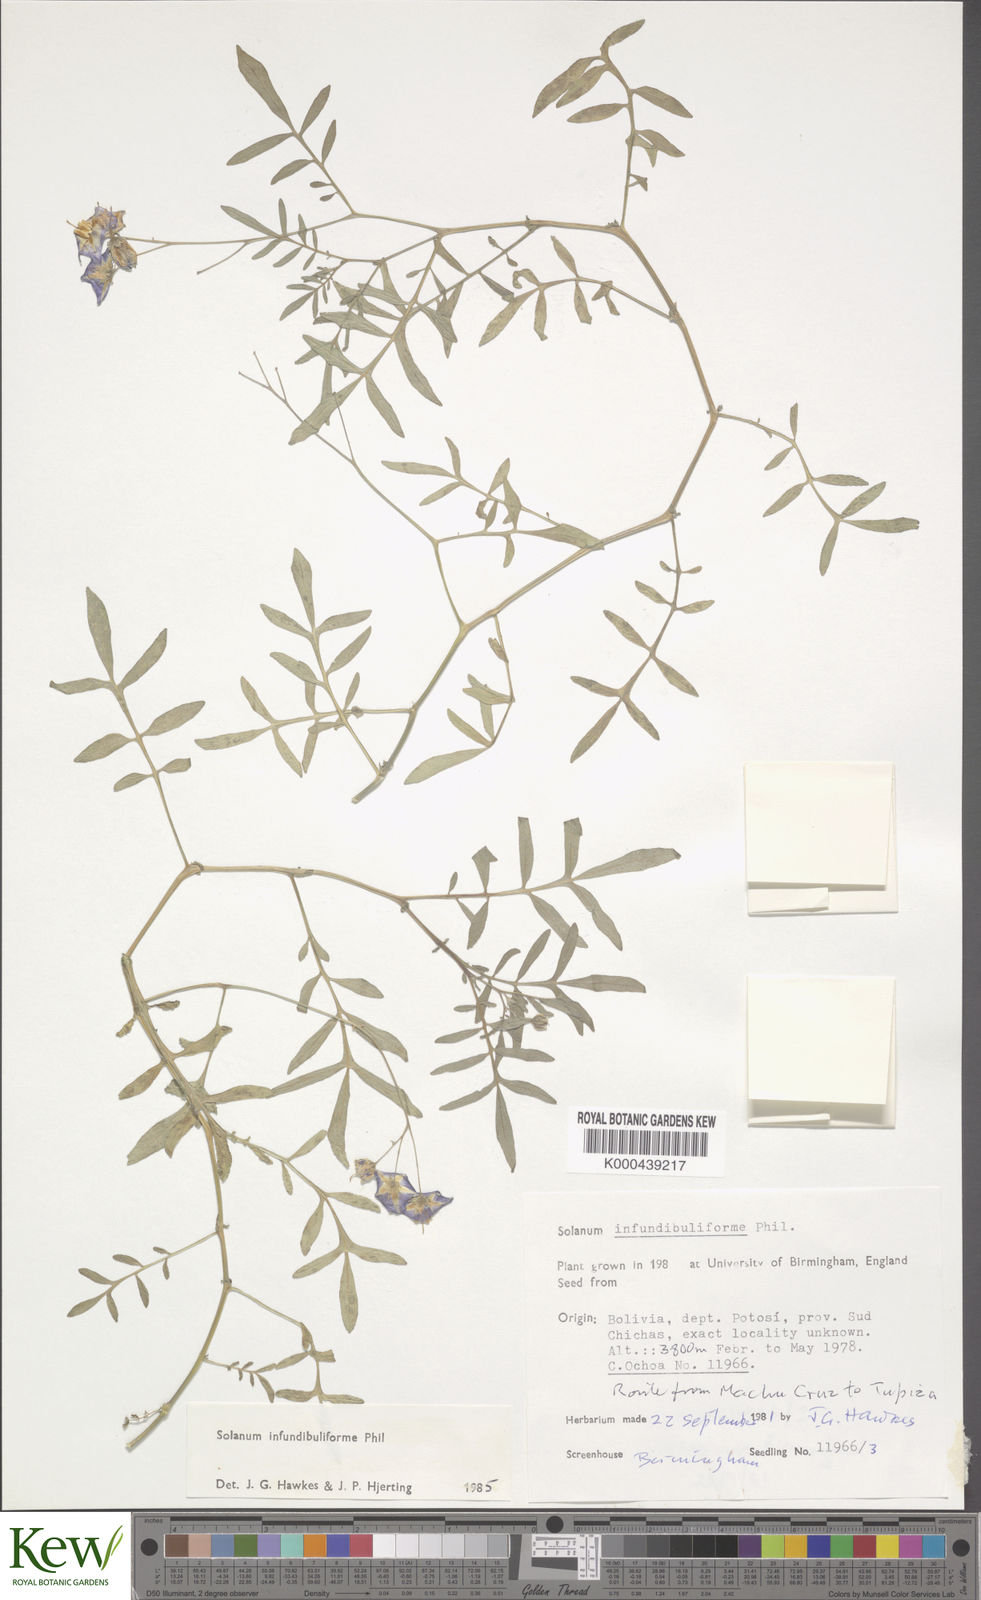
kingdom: Plantae
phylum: Tracheophyta
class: Magnoliopsida
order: Solanales
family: Solanaceae
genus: Solanum
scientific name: Solanum infundibuliforme
